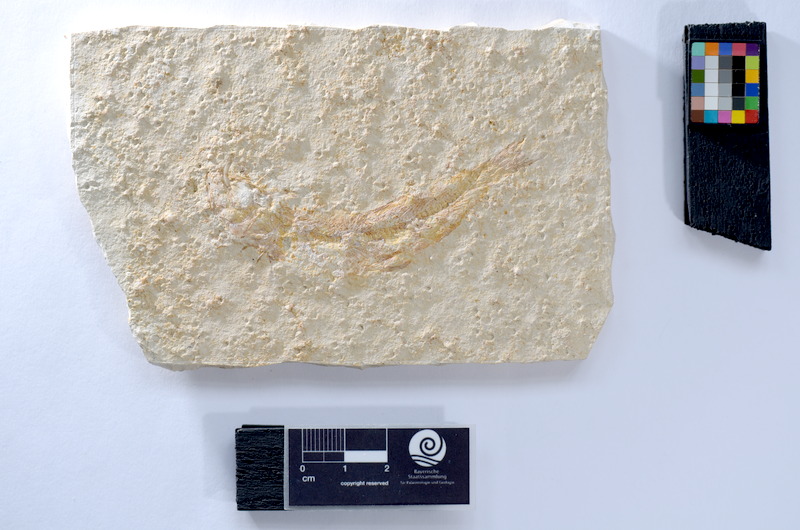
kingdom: Animalia
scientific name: Animalia
